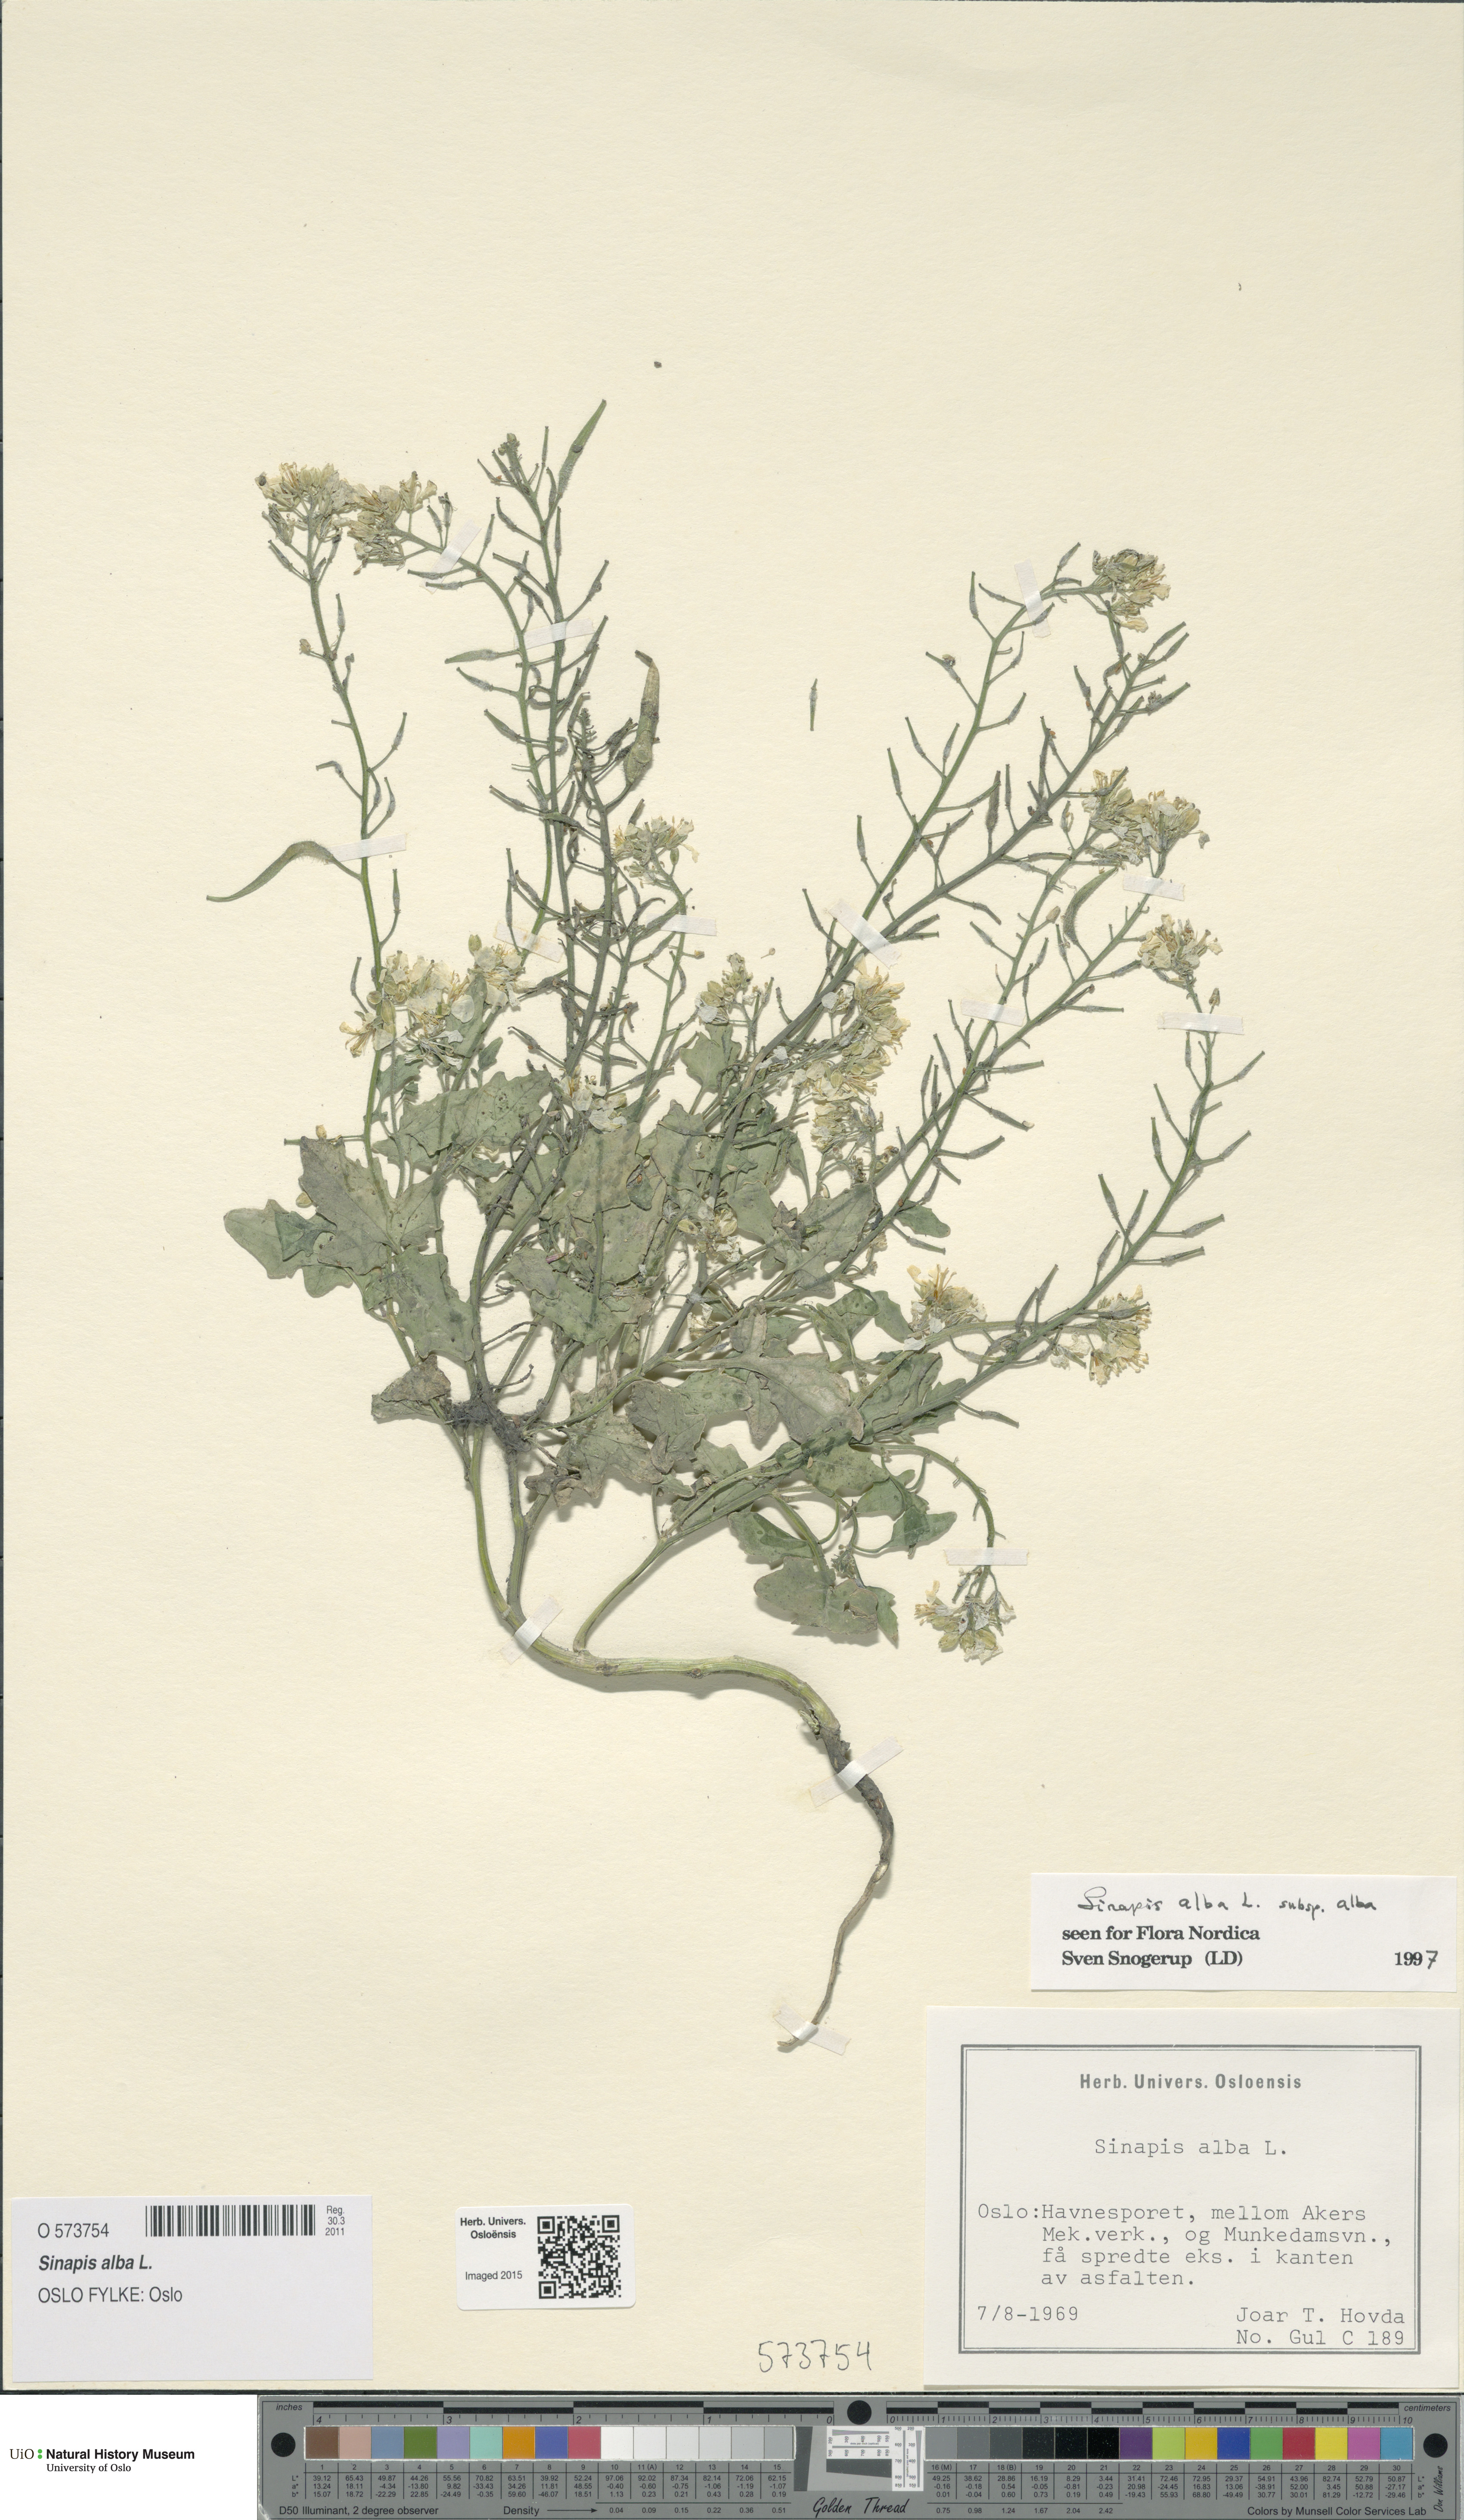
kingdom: Plantae
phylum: Tracheophyta
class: Magnoliopsida
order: Brassicales
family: Brassicaceae
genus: Sinapis
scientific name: Sinapis alba
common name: White mustard
